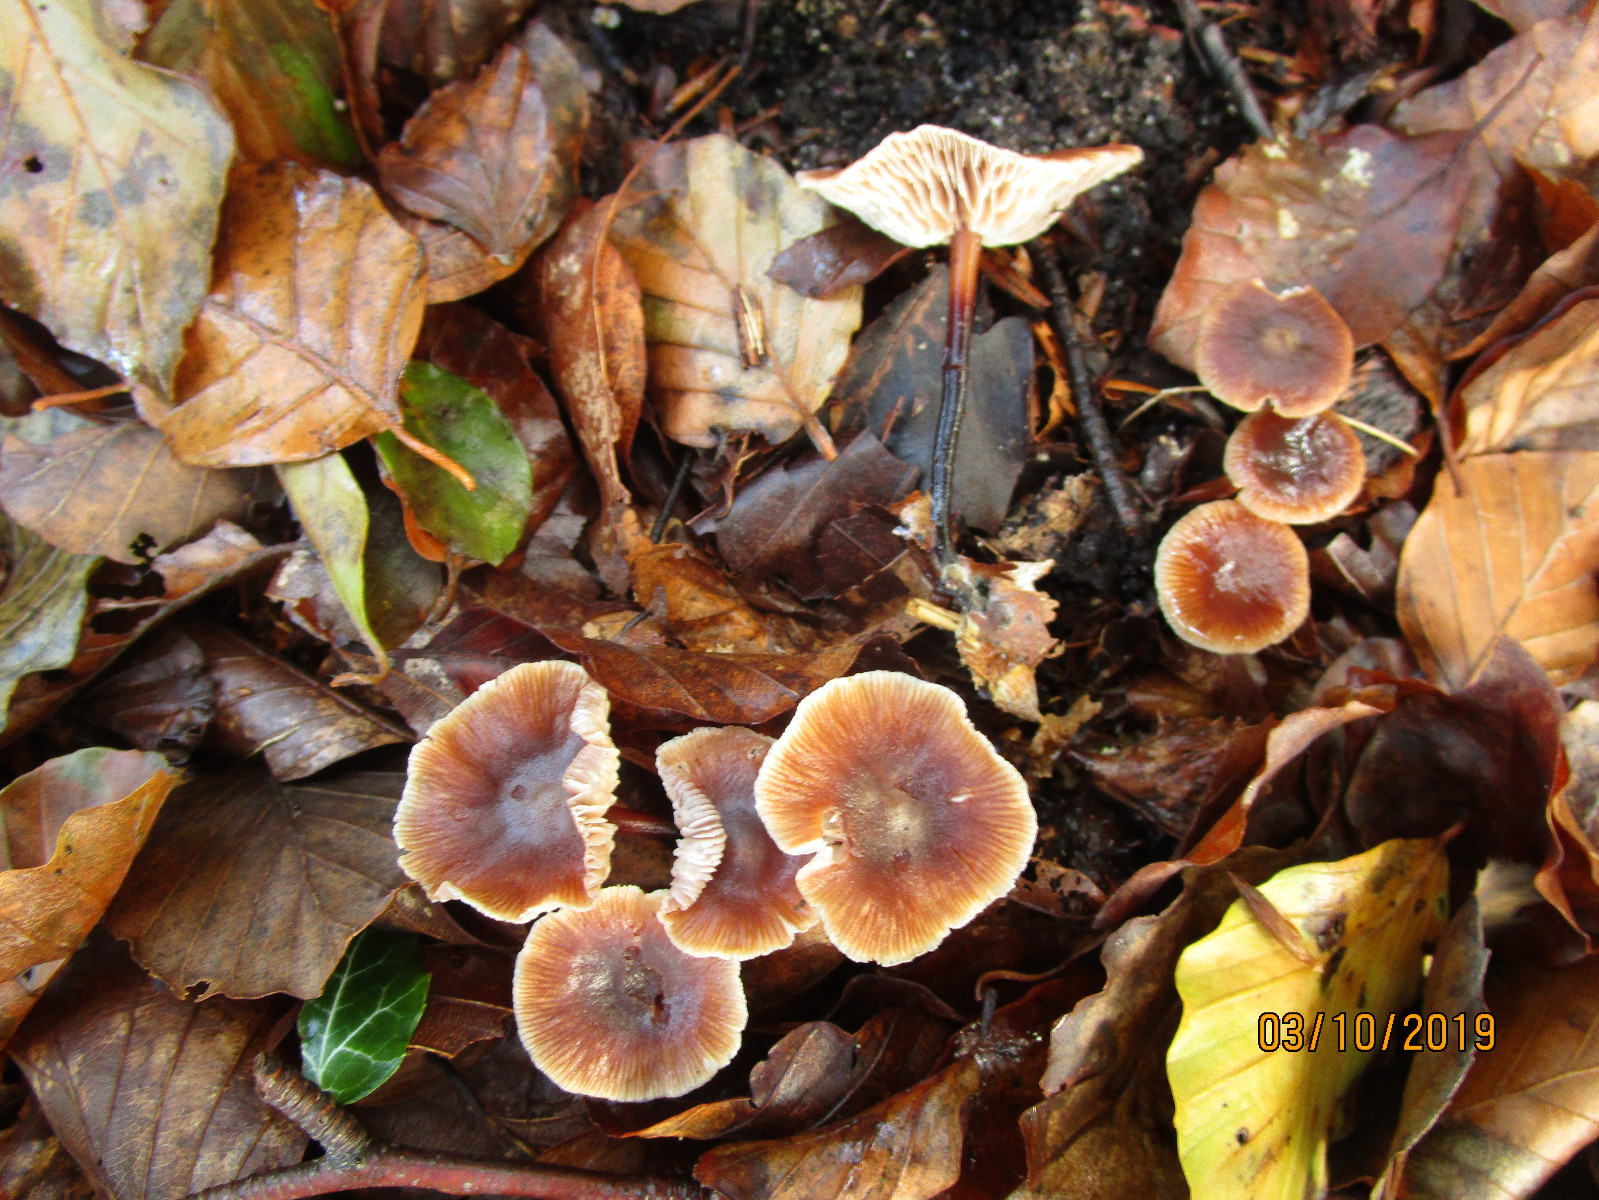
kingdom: Fungi
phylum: Basidiomycota
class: Agaricomycetes
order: Agaricales
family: Omphalotaceae
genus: Gymnopus
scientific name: Gymnopus brassicolens
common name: kål-fladhat
